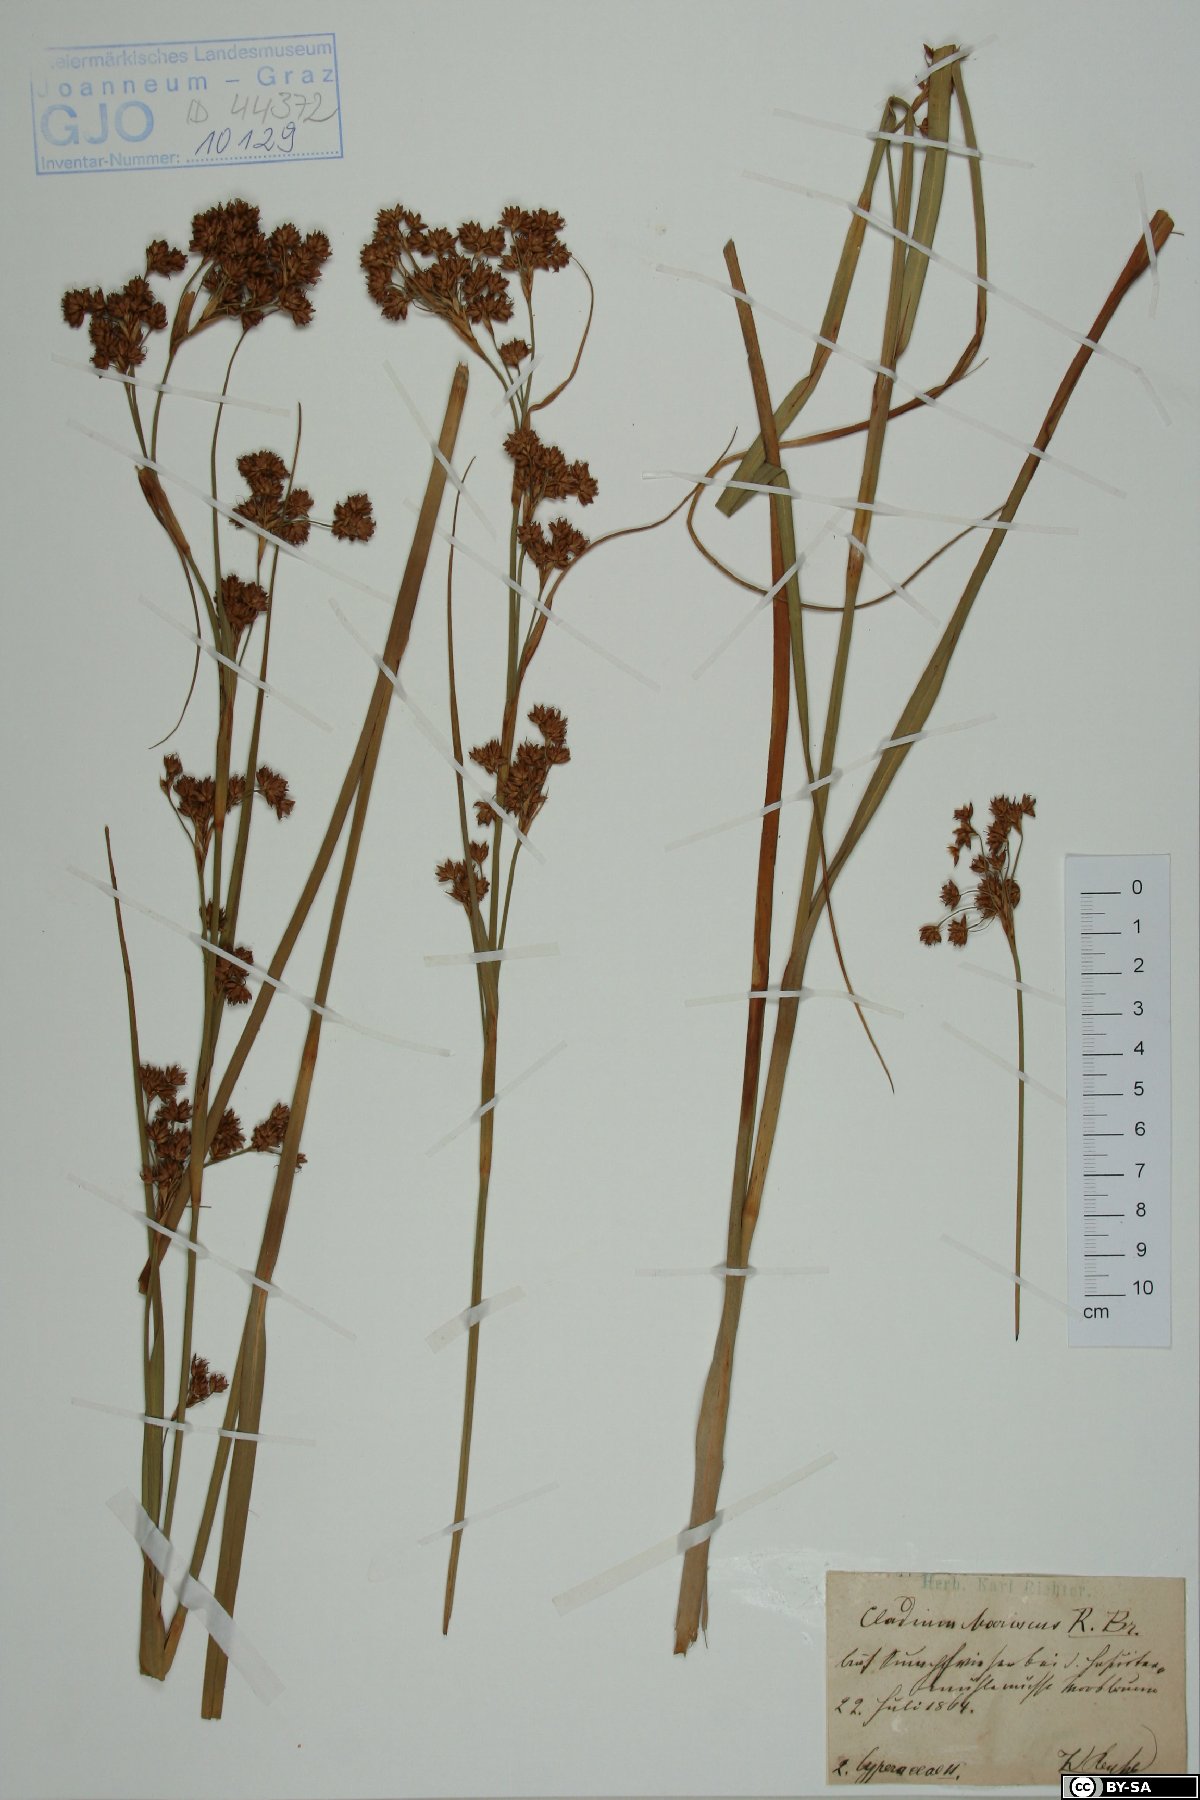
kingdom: Plantae
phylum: Tracheophyta
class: Liliopsida
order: Poales
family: Cyperaceae
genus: Cladium
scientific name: Cladium mariscus
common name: Great fen-sedge
